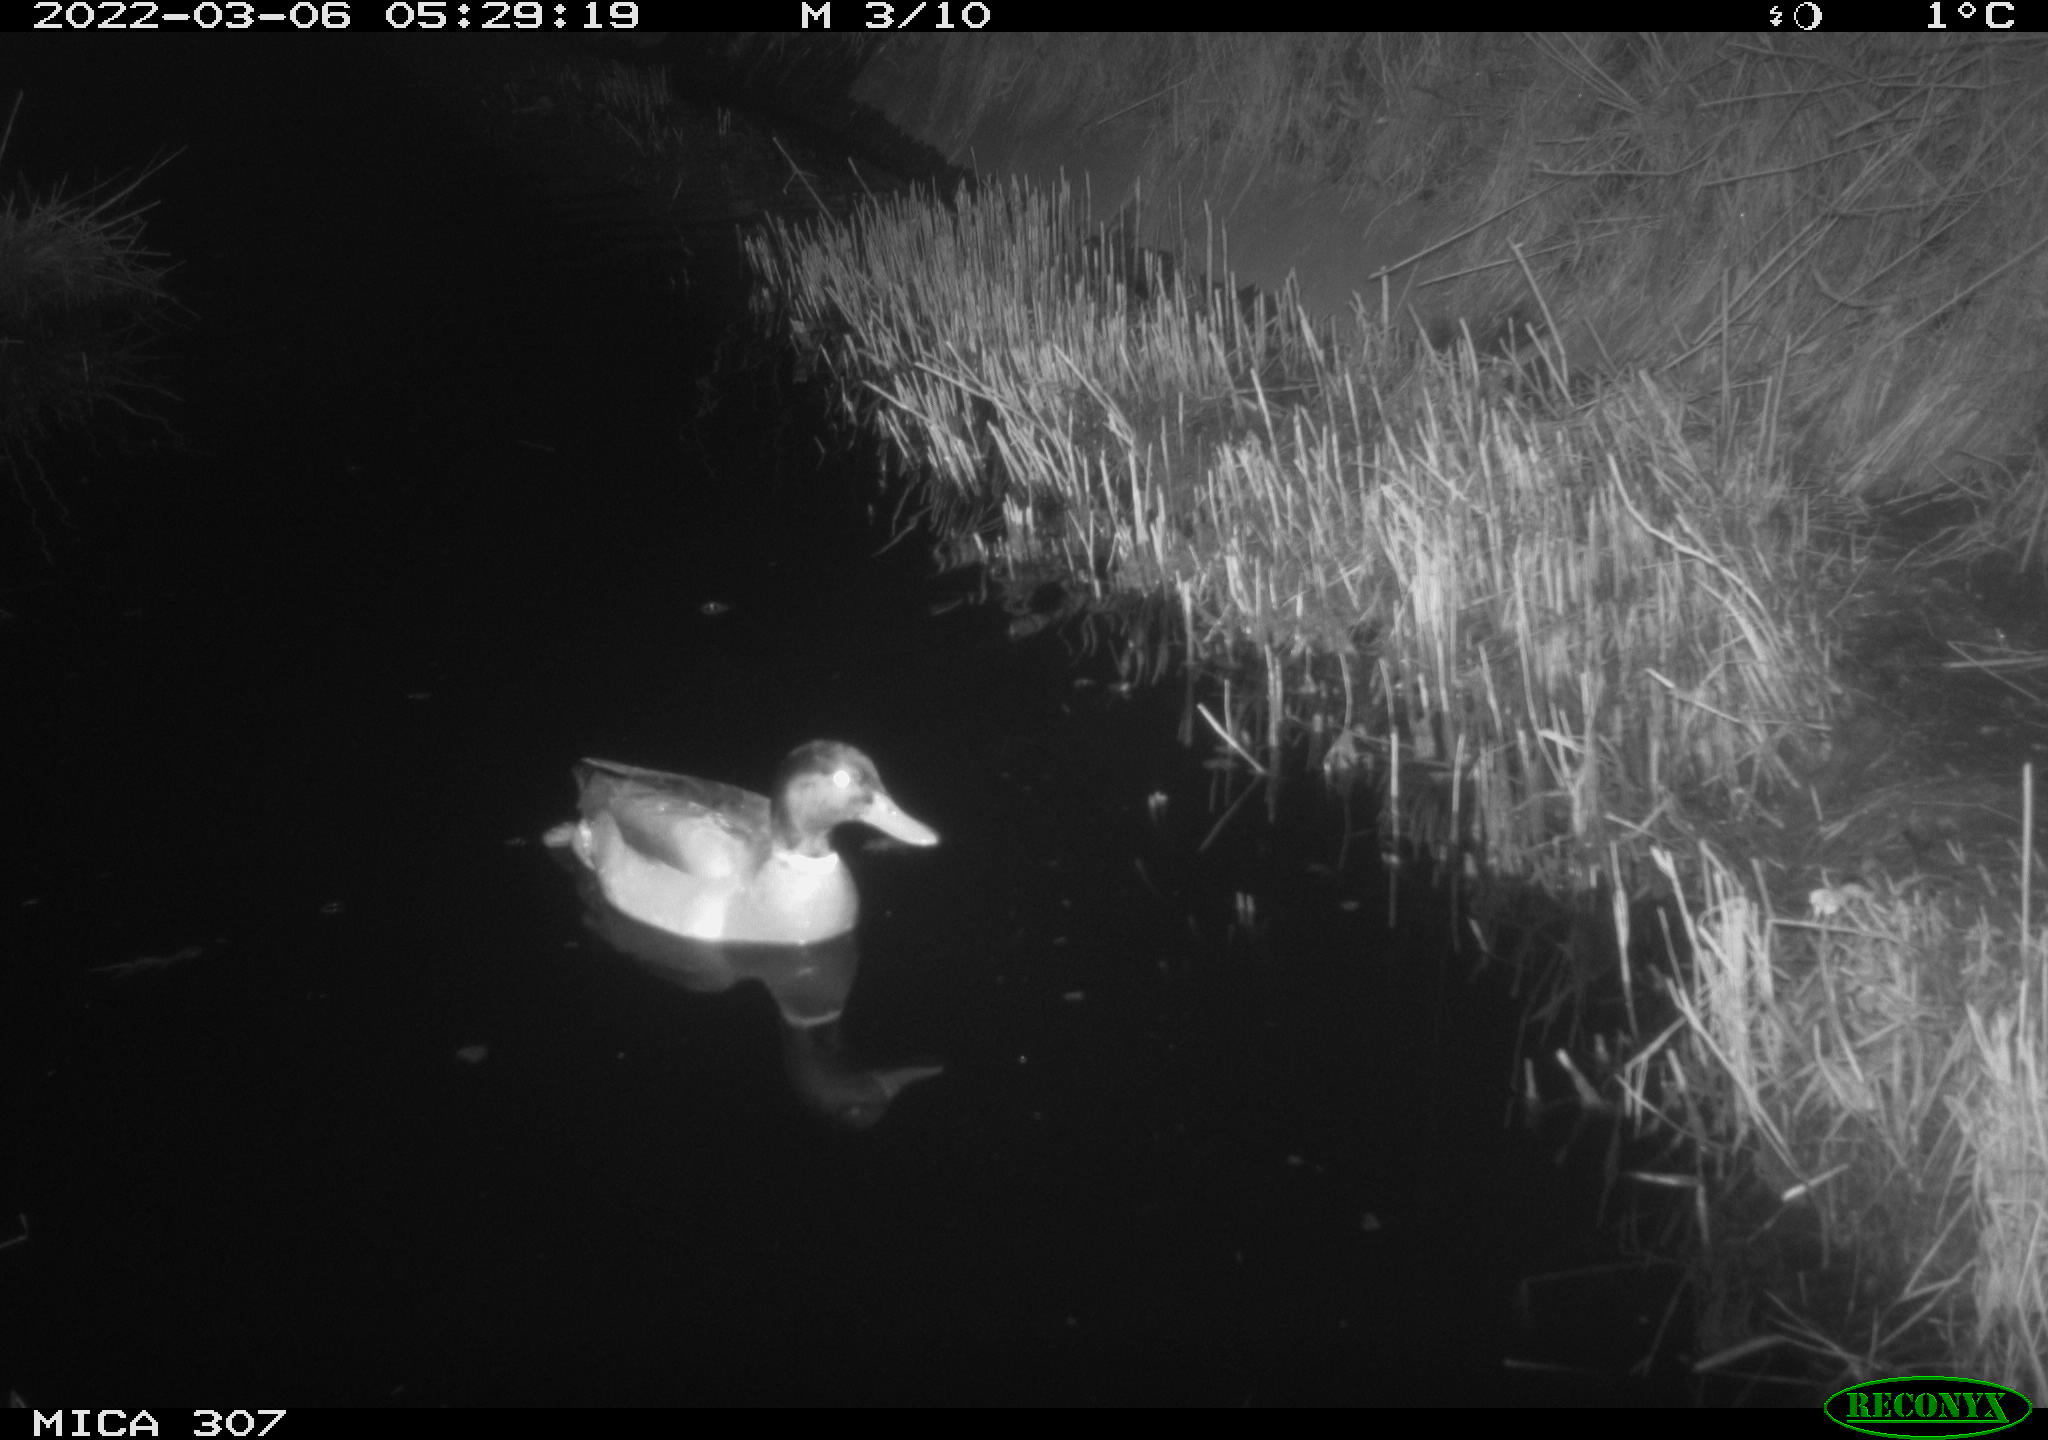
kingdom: Animalia
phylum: Chordata
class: Aves
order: Anseriformes
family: Anatidae
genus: Anas
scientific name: Anas platyrhynchos
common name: Mallard
